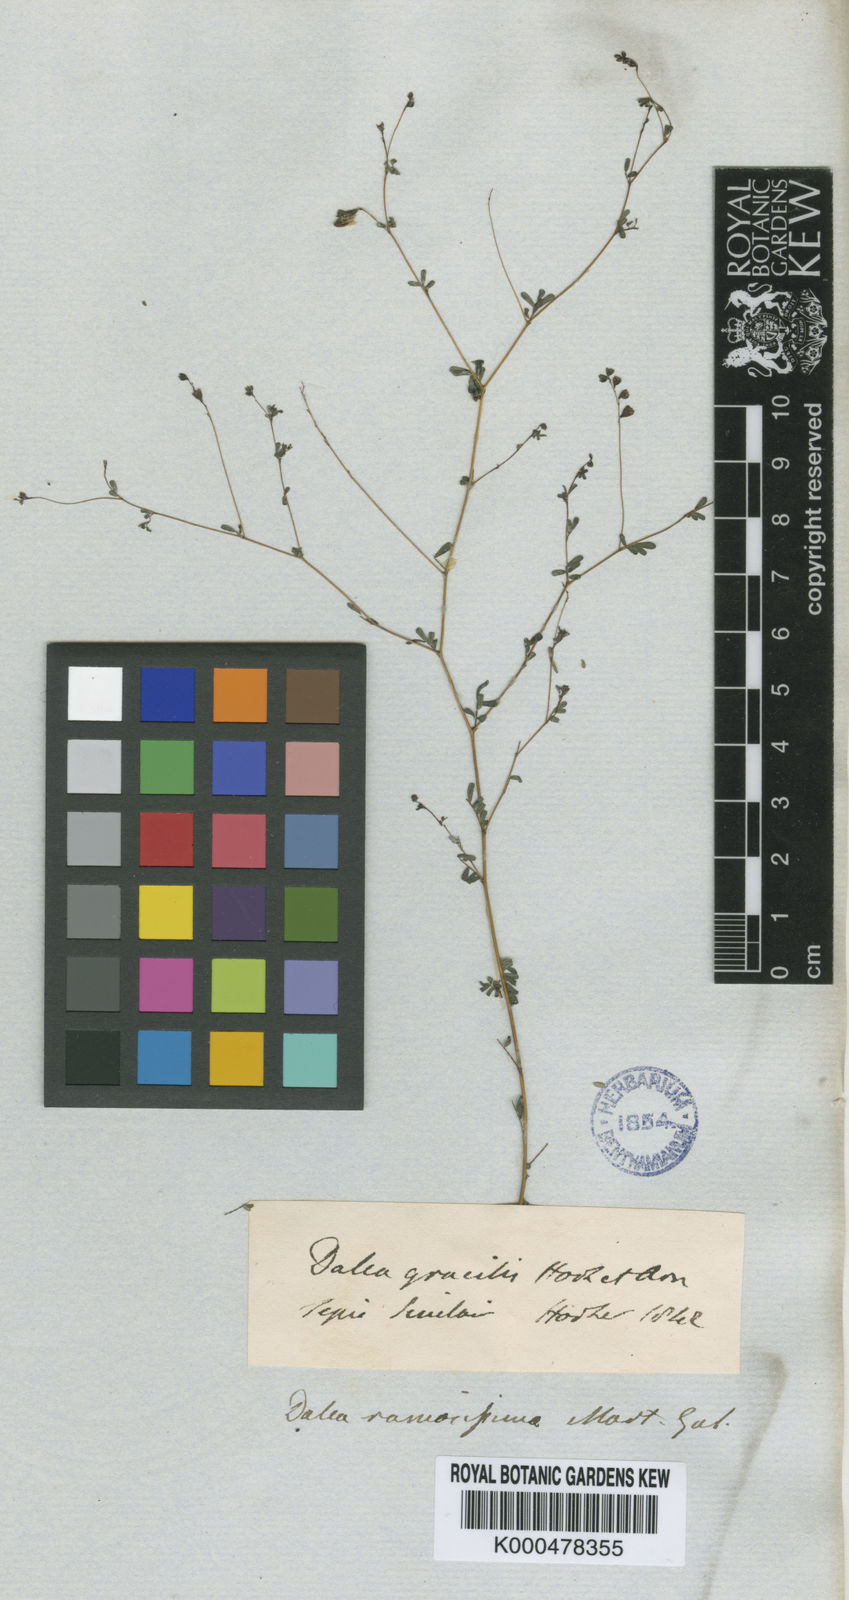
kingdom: Plantae
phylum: Tracheophyta
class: Magnoliopsida
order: Fabales
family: Fabaceae
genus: Marina
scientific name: Marina diffusa
